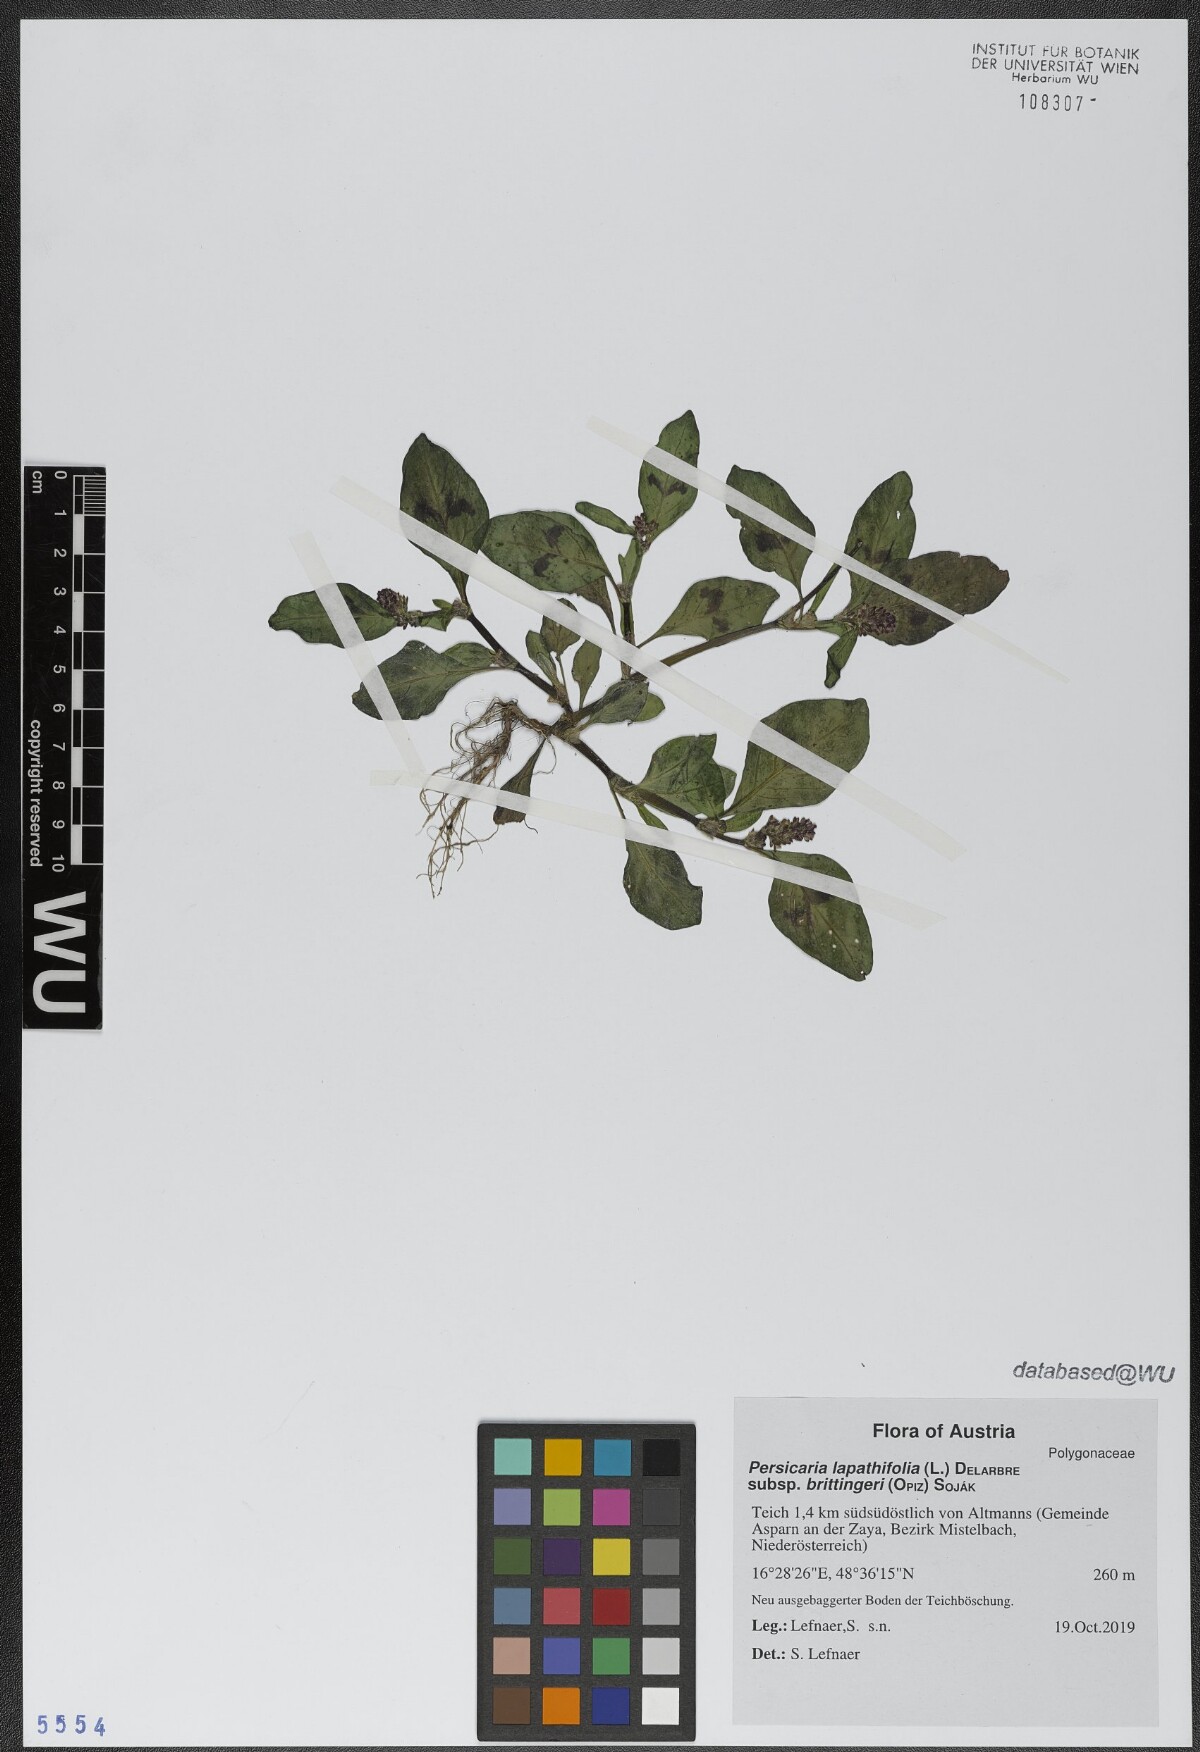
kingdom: Plantae
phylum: Tracheophyta
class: Magnoliopsida
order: Caryophyllales
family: Polygonaceae
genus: Persicaria
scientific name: Persicaria lapathifolia
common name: Curlytop knotweed
